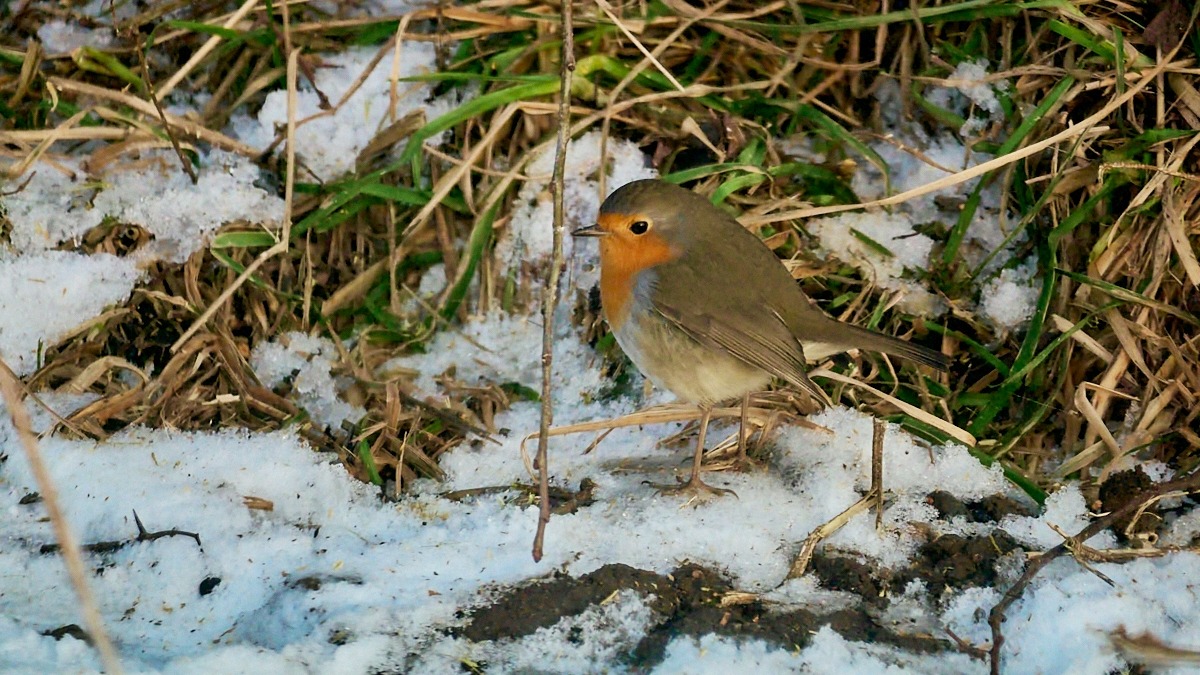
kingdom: Animalia
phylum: Chordata
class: Aves
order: Passeriformes
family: Muscicapidae
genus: Erithacus
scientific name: Erithacus rubecula
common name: Rødhals/rødkælk
